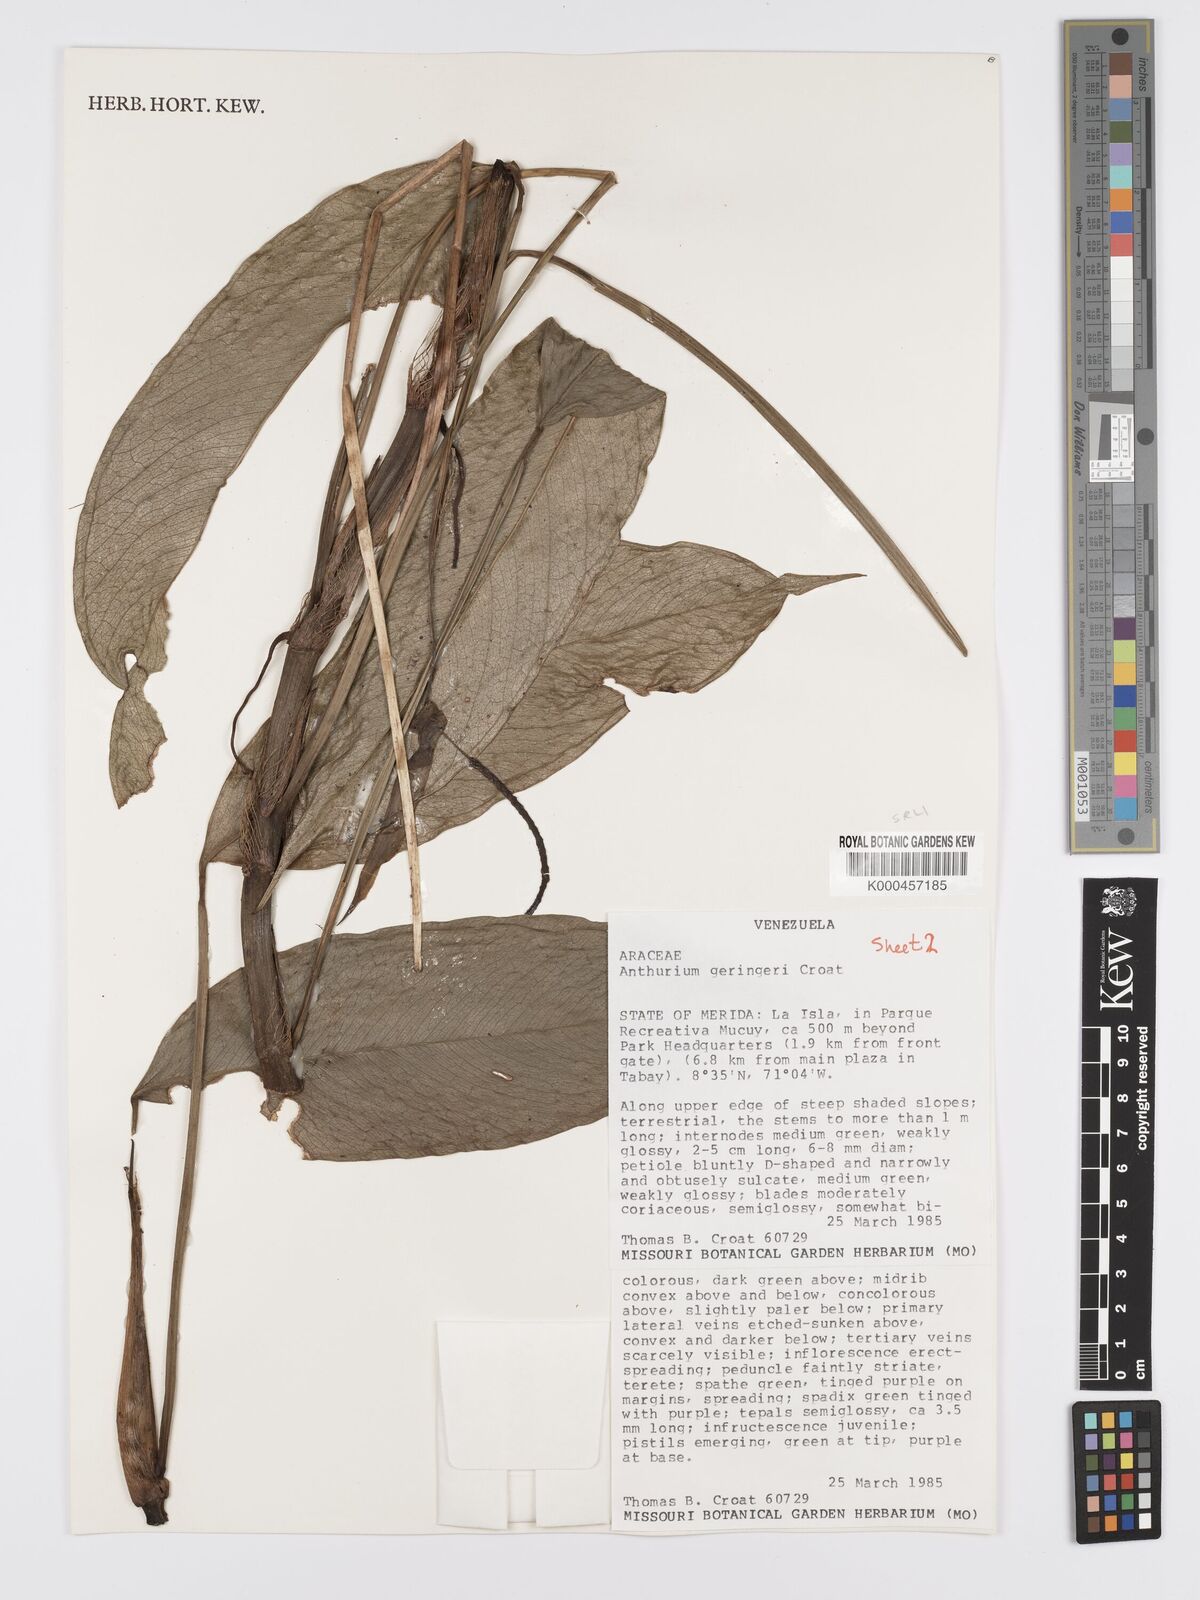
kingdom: Plantae
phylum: Tracheophyta
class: Liliopsida
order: Alismatales
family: Araceae
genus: Anthurium
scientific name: Anthurium gehrigeri
